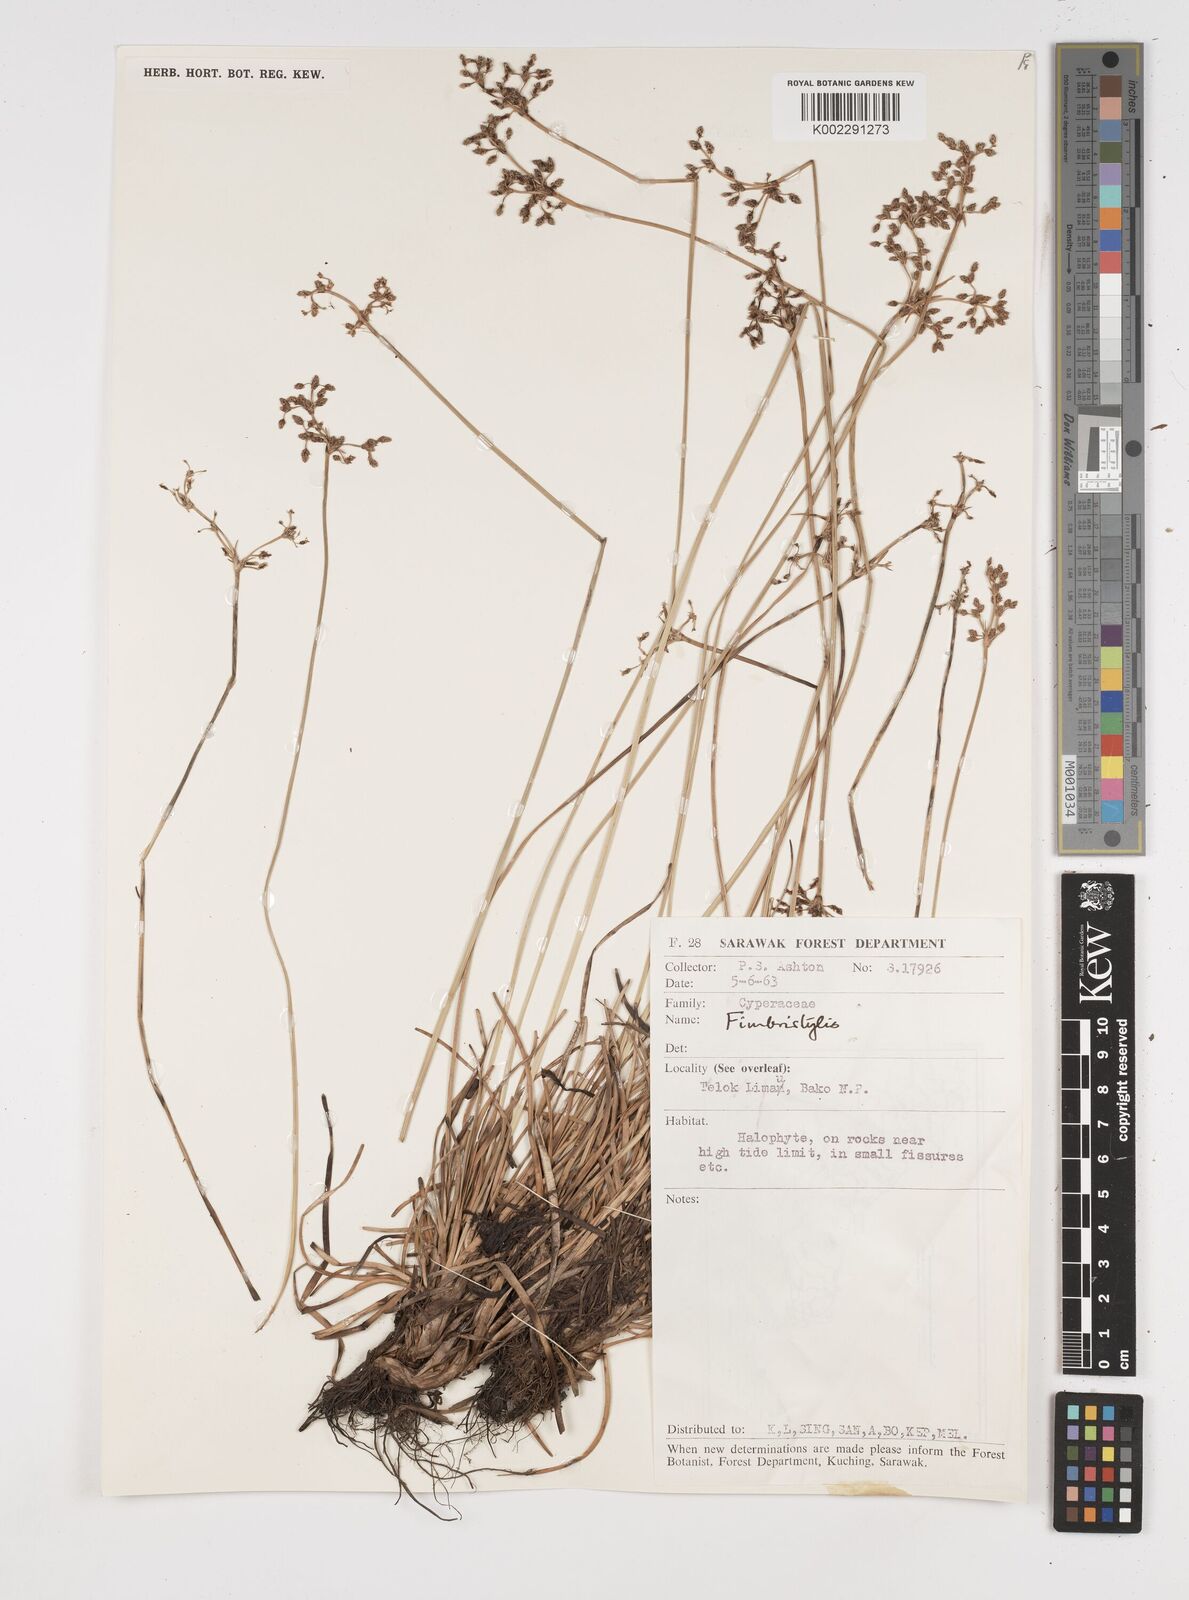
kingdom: Plantae
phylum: Tracheophyta
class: Liliopsida
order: Poales
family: Cyperaceae
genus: Fimbristylis
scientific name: Fimbristylis
